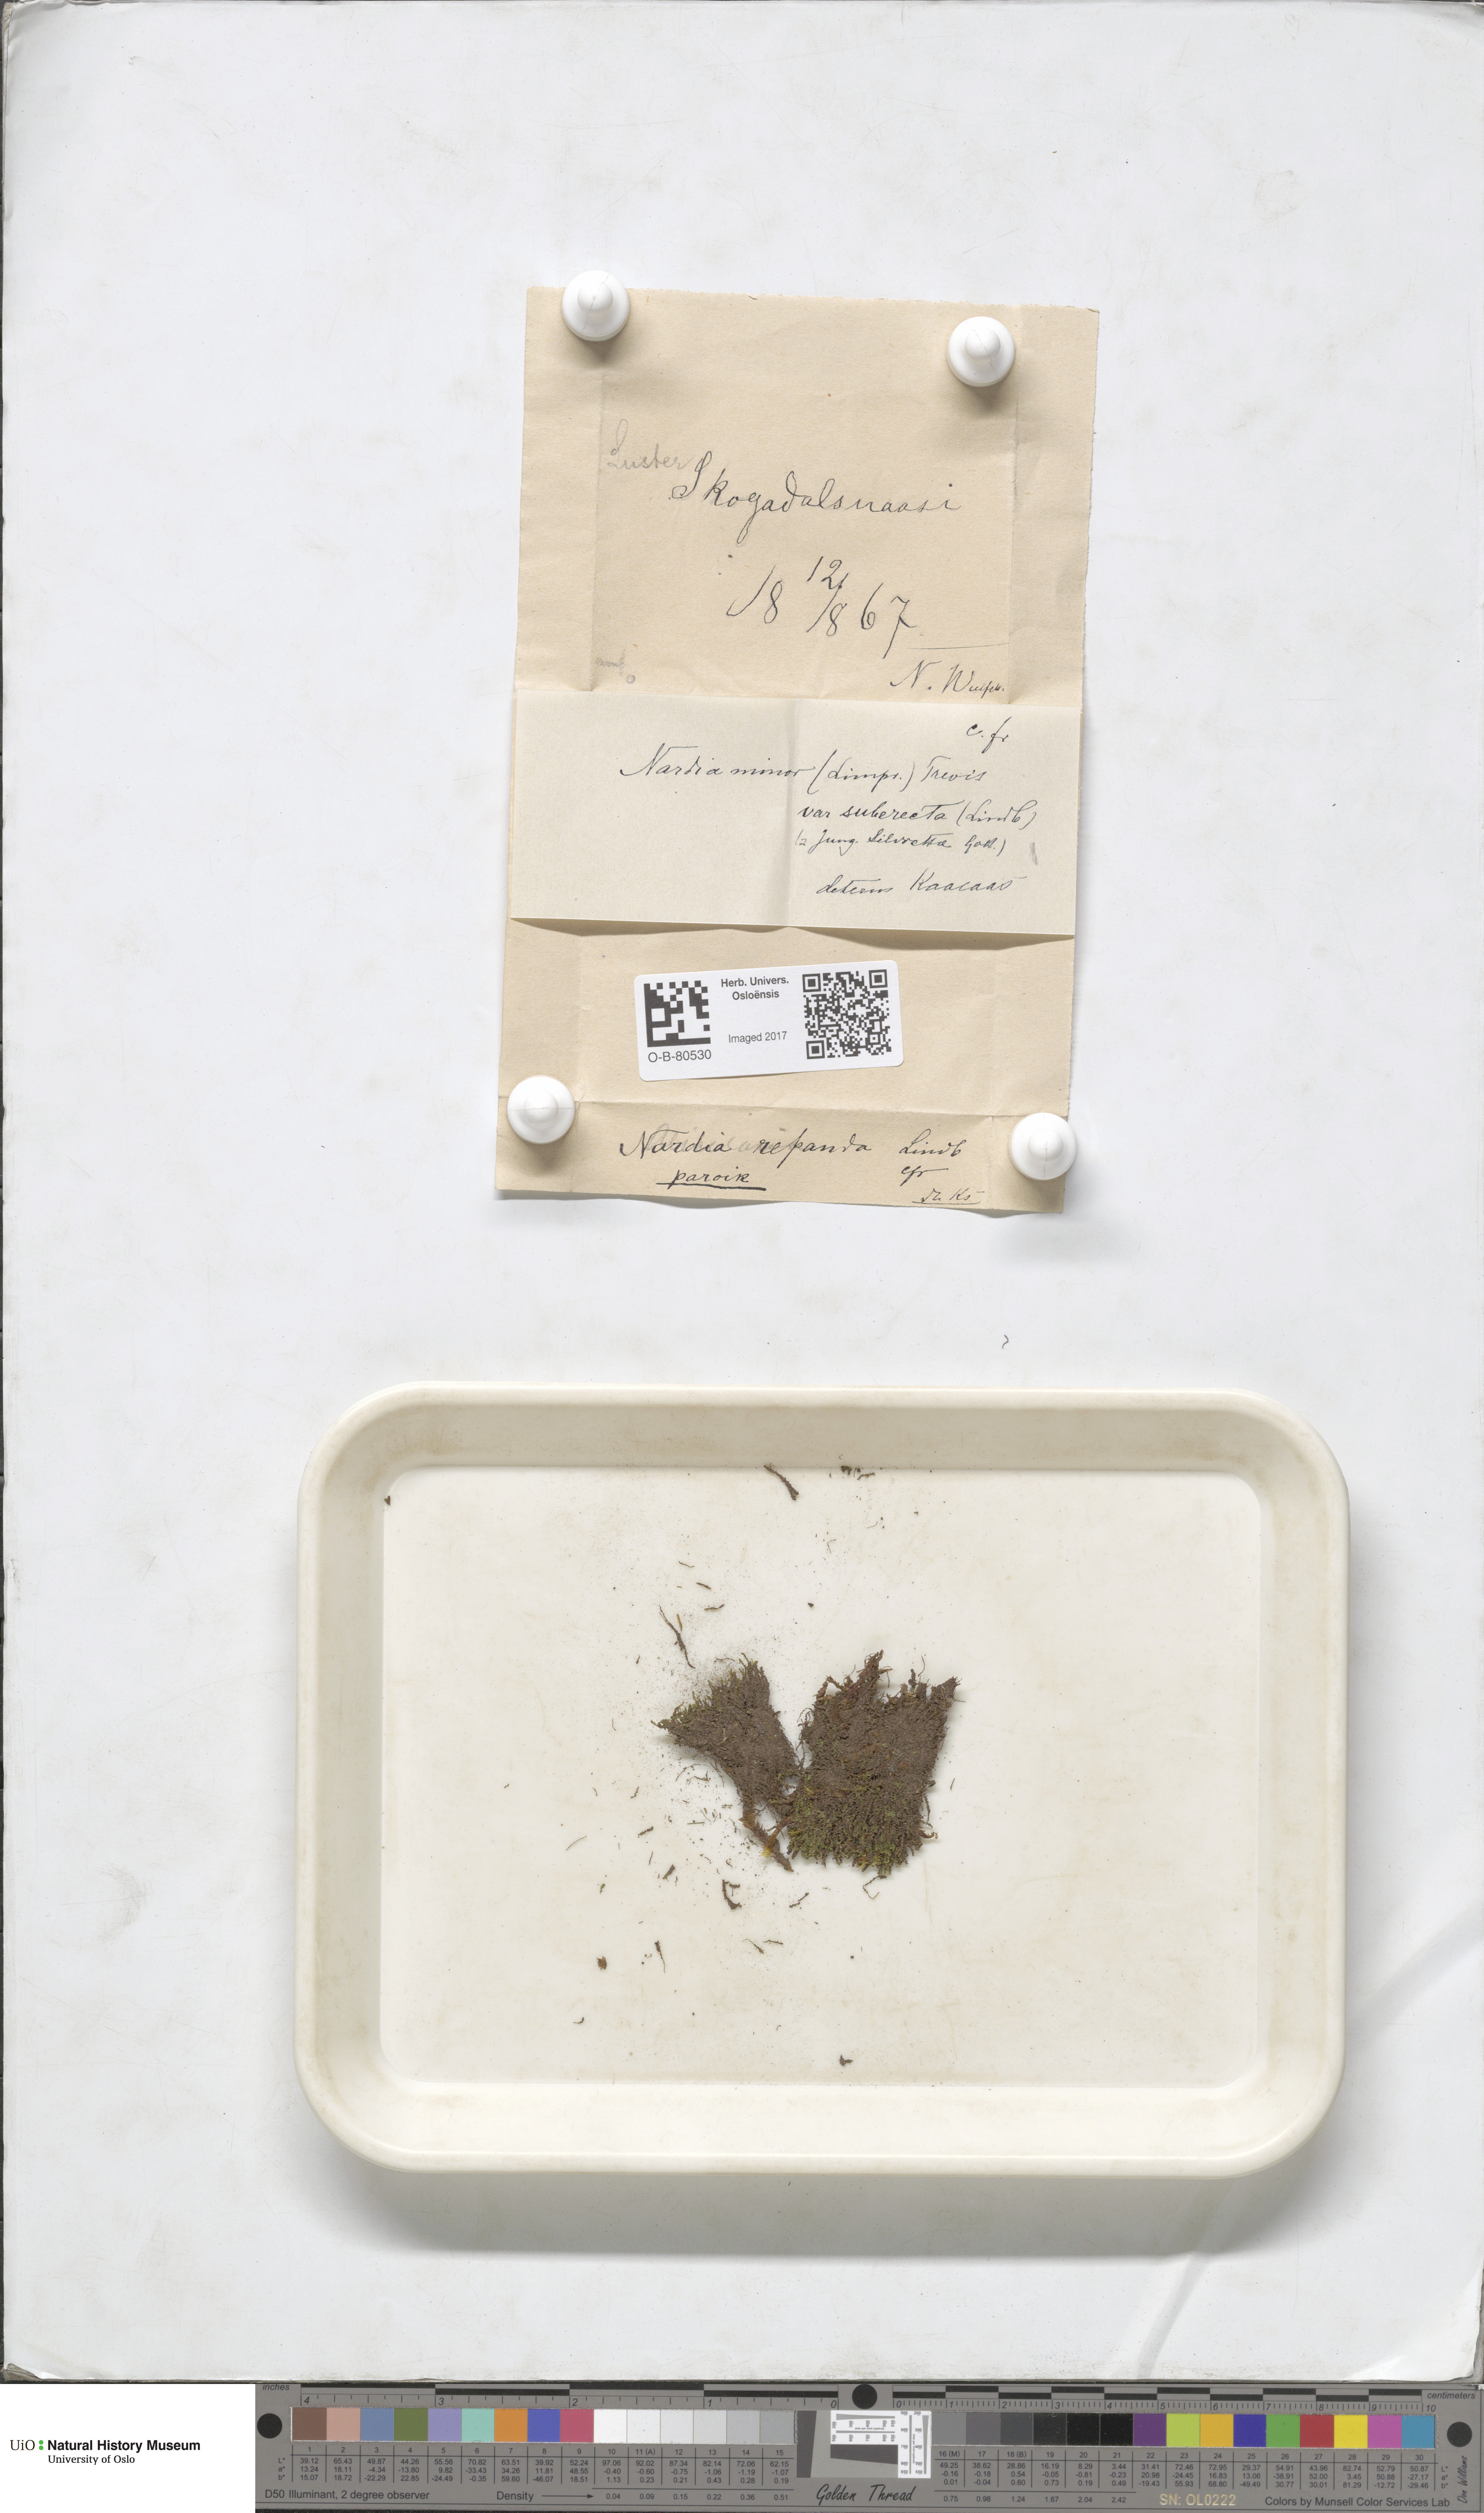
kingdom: Plantae
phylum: Marchantiophyta
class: Jungermanniopsida
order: Jungermanniales
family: Gymnomitriaceae
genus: Nardia
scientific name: Nardia geoscyphus
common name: Earth-cup flapwort
